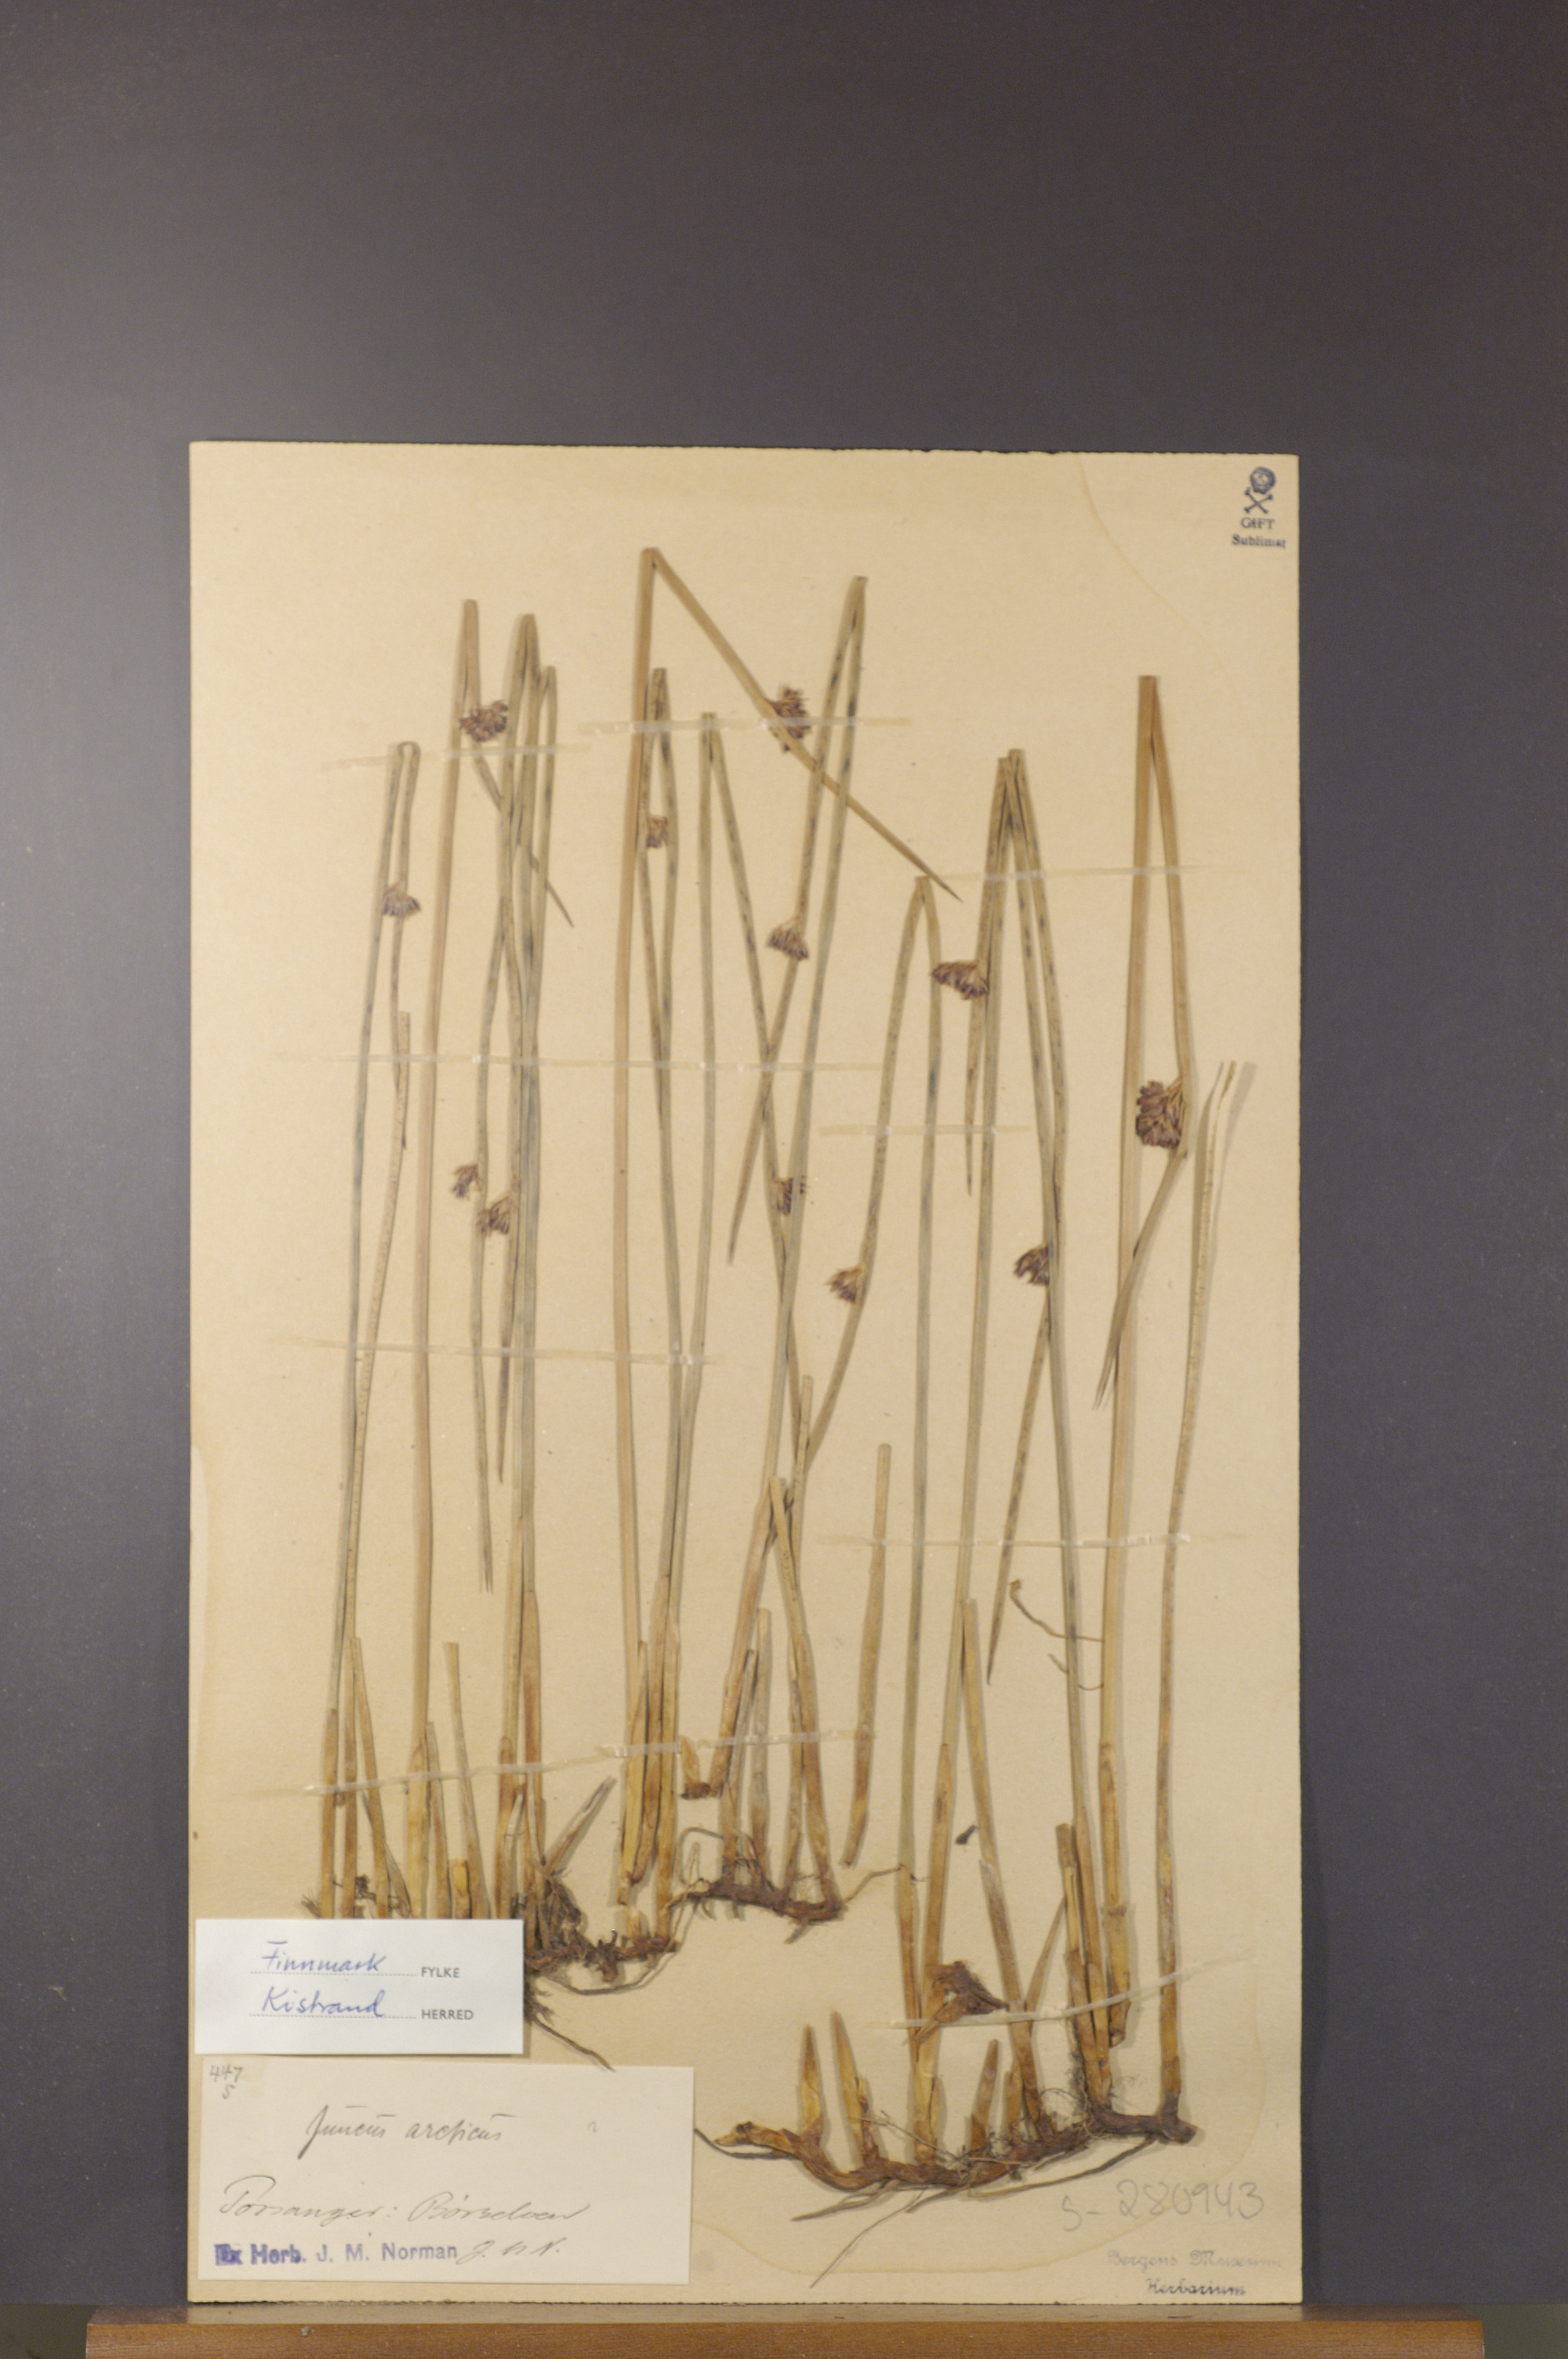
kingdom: Plantae
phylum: Tracheophyta
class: Liliopsida
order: Poales
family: Juncaceae
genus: Juncus
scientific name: Juncus arcticus
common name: Arctic rush
